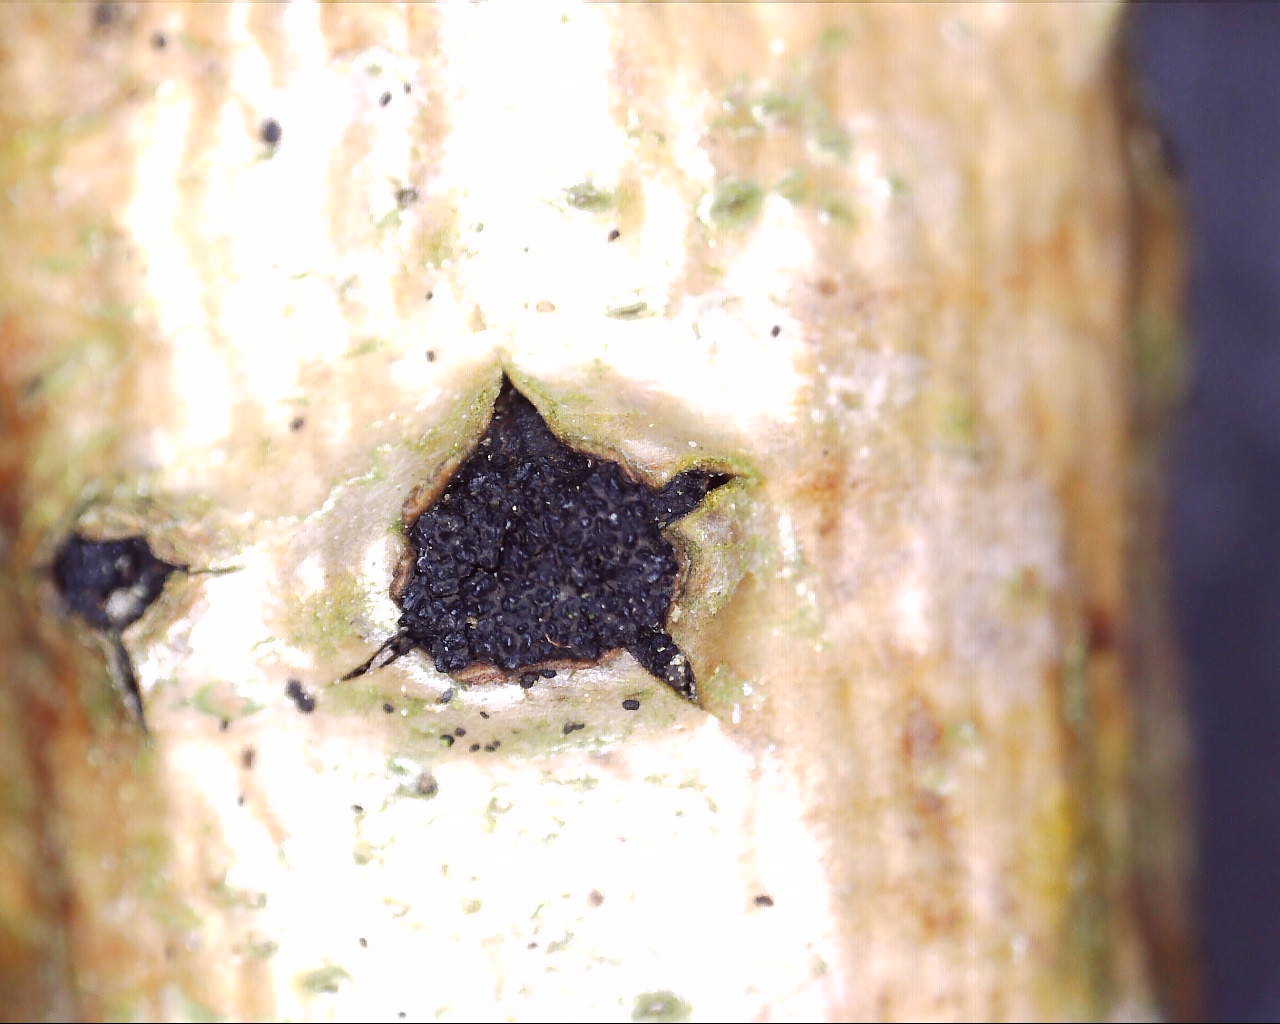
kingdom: Fungi
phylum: Ascomycota
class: Sordariomycetes
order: Xylariales
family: Diatrypaceae
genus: Eutypella
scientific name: Eutypella sorbi
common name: rønne-kulskorpe
